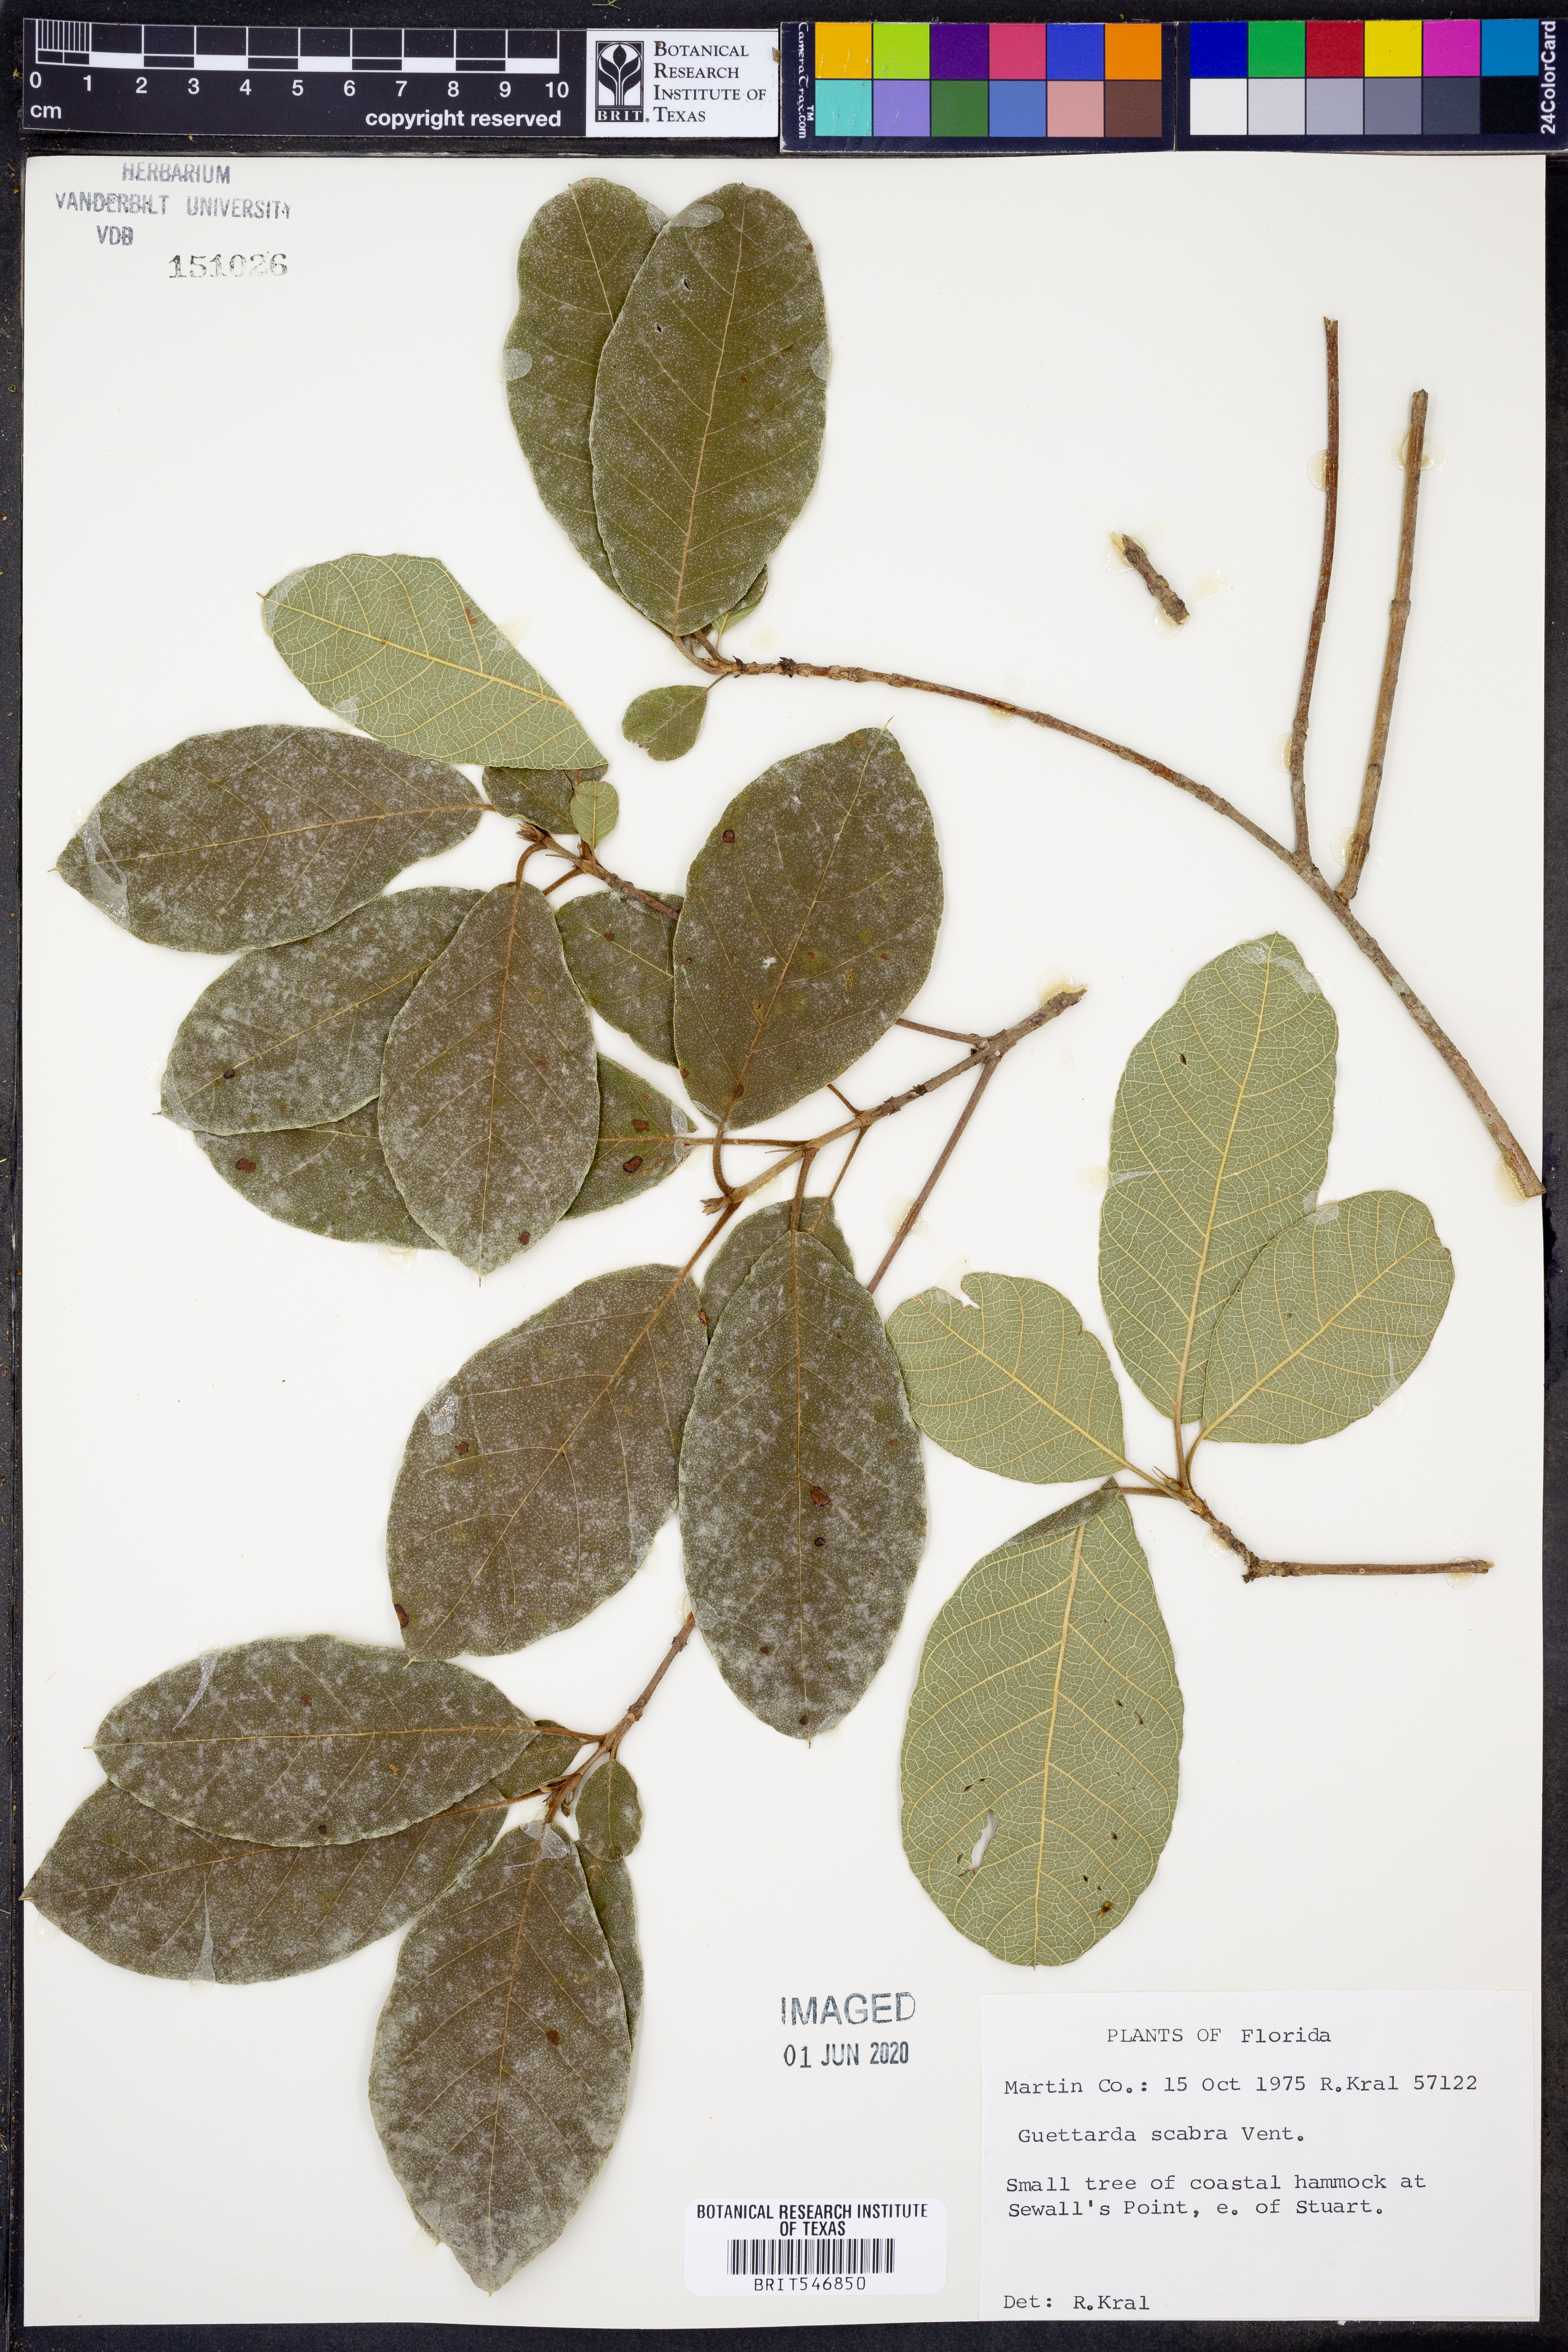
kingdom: Plantae
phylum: Tracheophyta
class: Magnoliopsida
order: Gentianales
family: Rubiaceae
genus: Guettarda
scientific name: Guettarda scabra
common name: Pigeon bay
